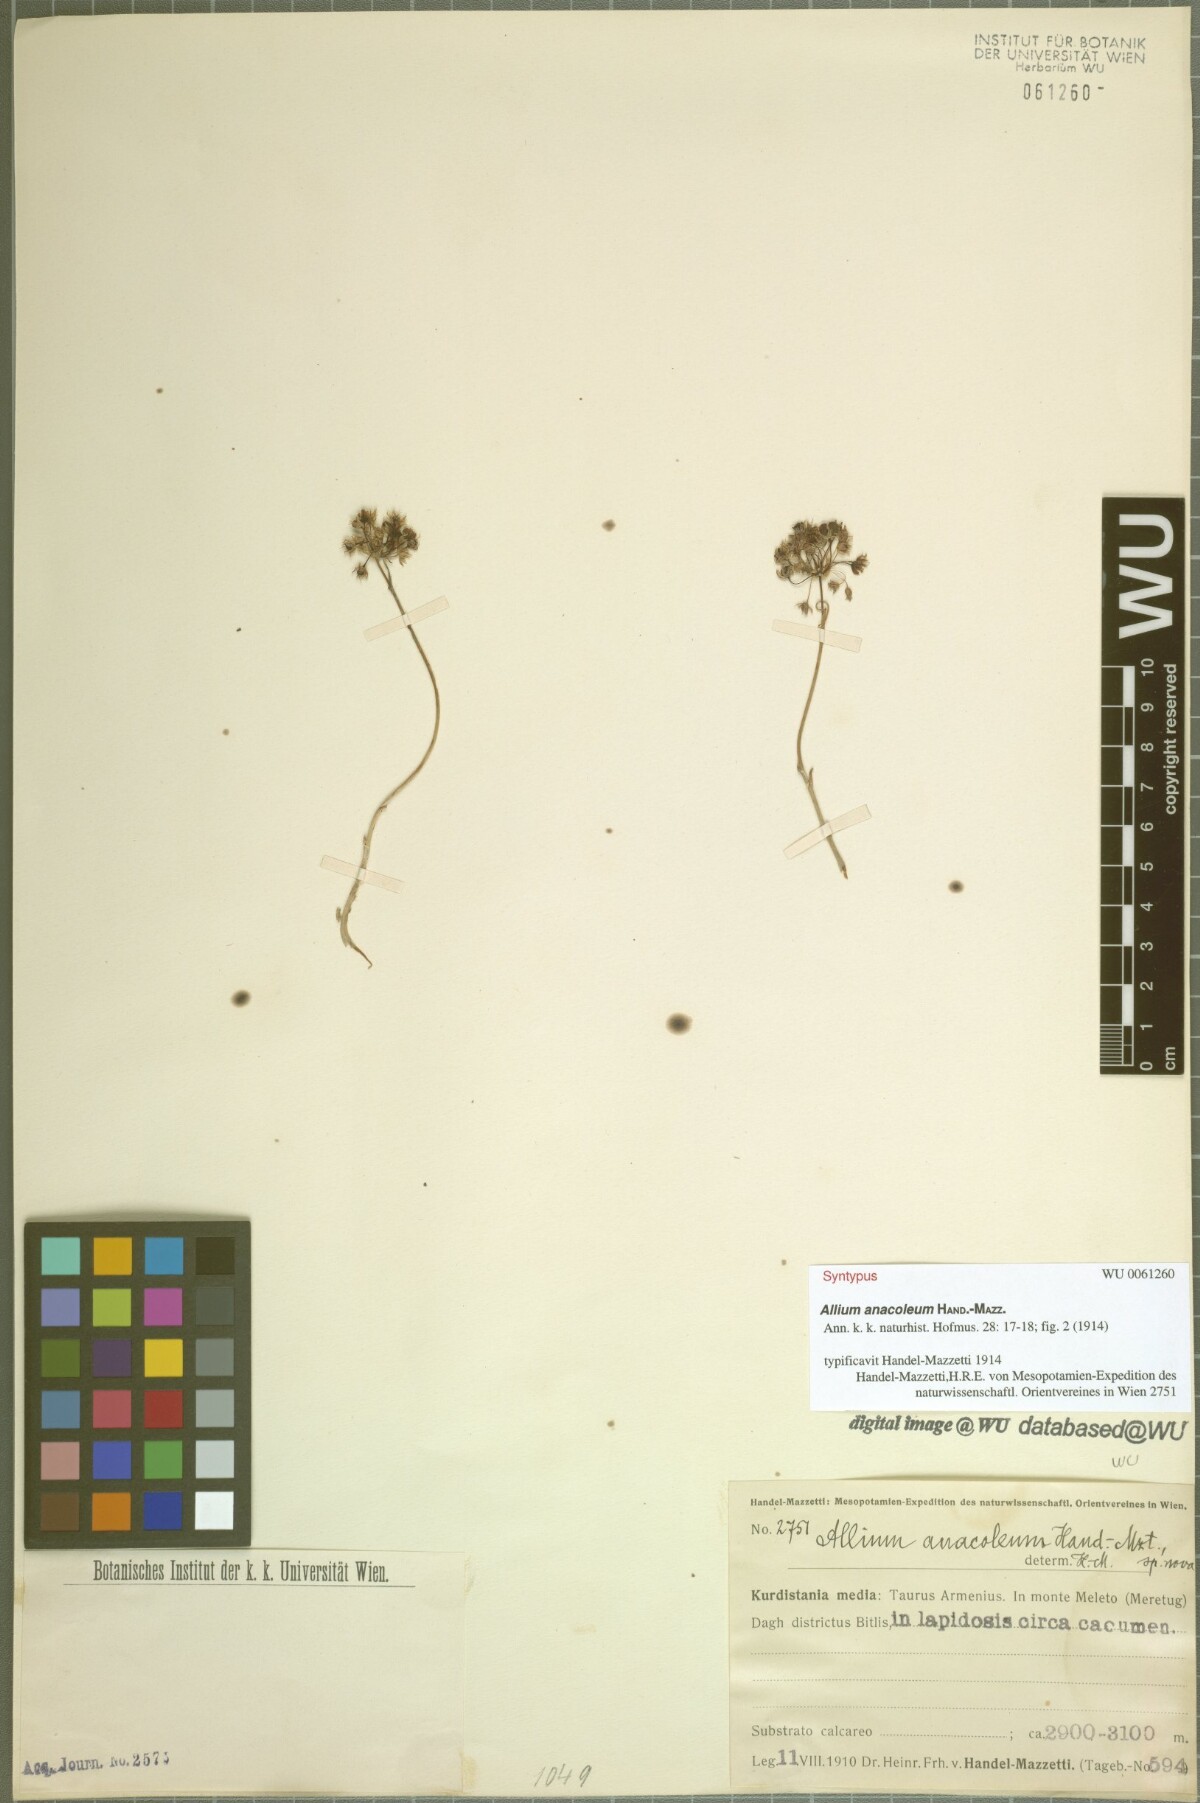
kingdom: Plantae
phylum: Tracheophyta
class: Liliopsida
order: Asparagales
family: Amaryllidaceae
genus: Allium
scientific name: Allium anacoleum
